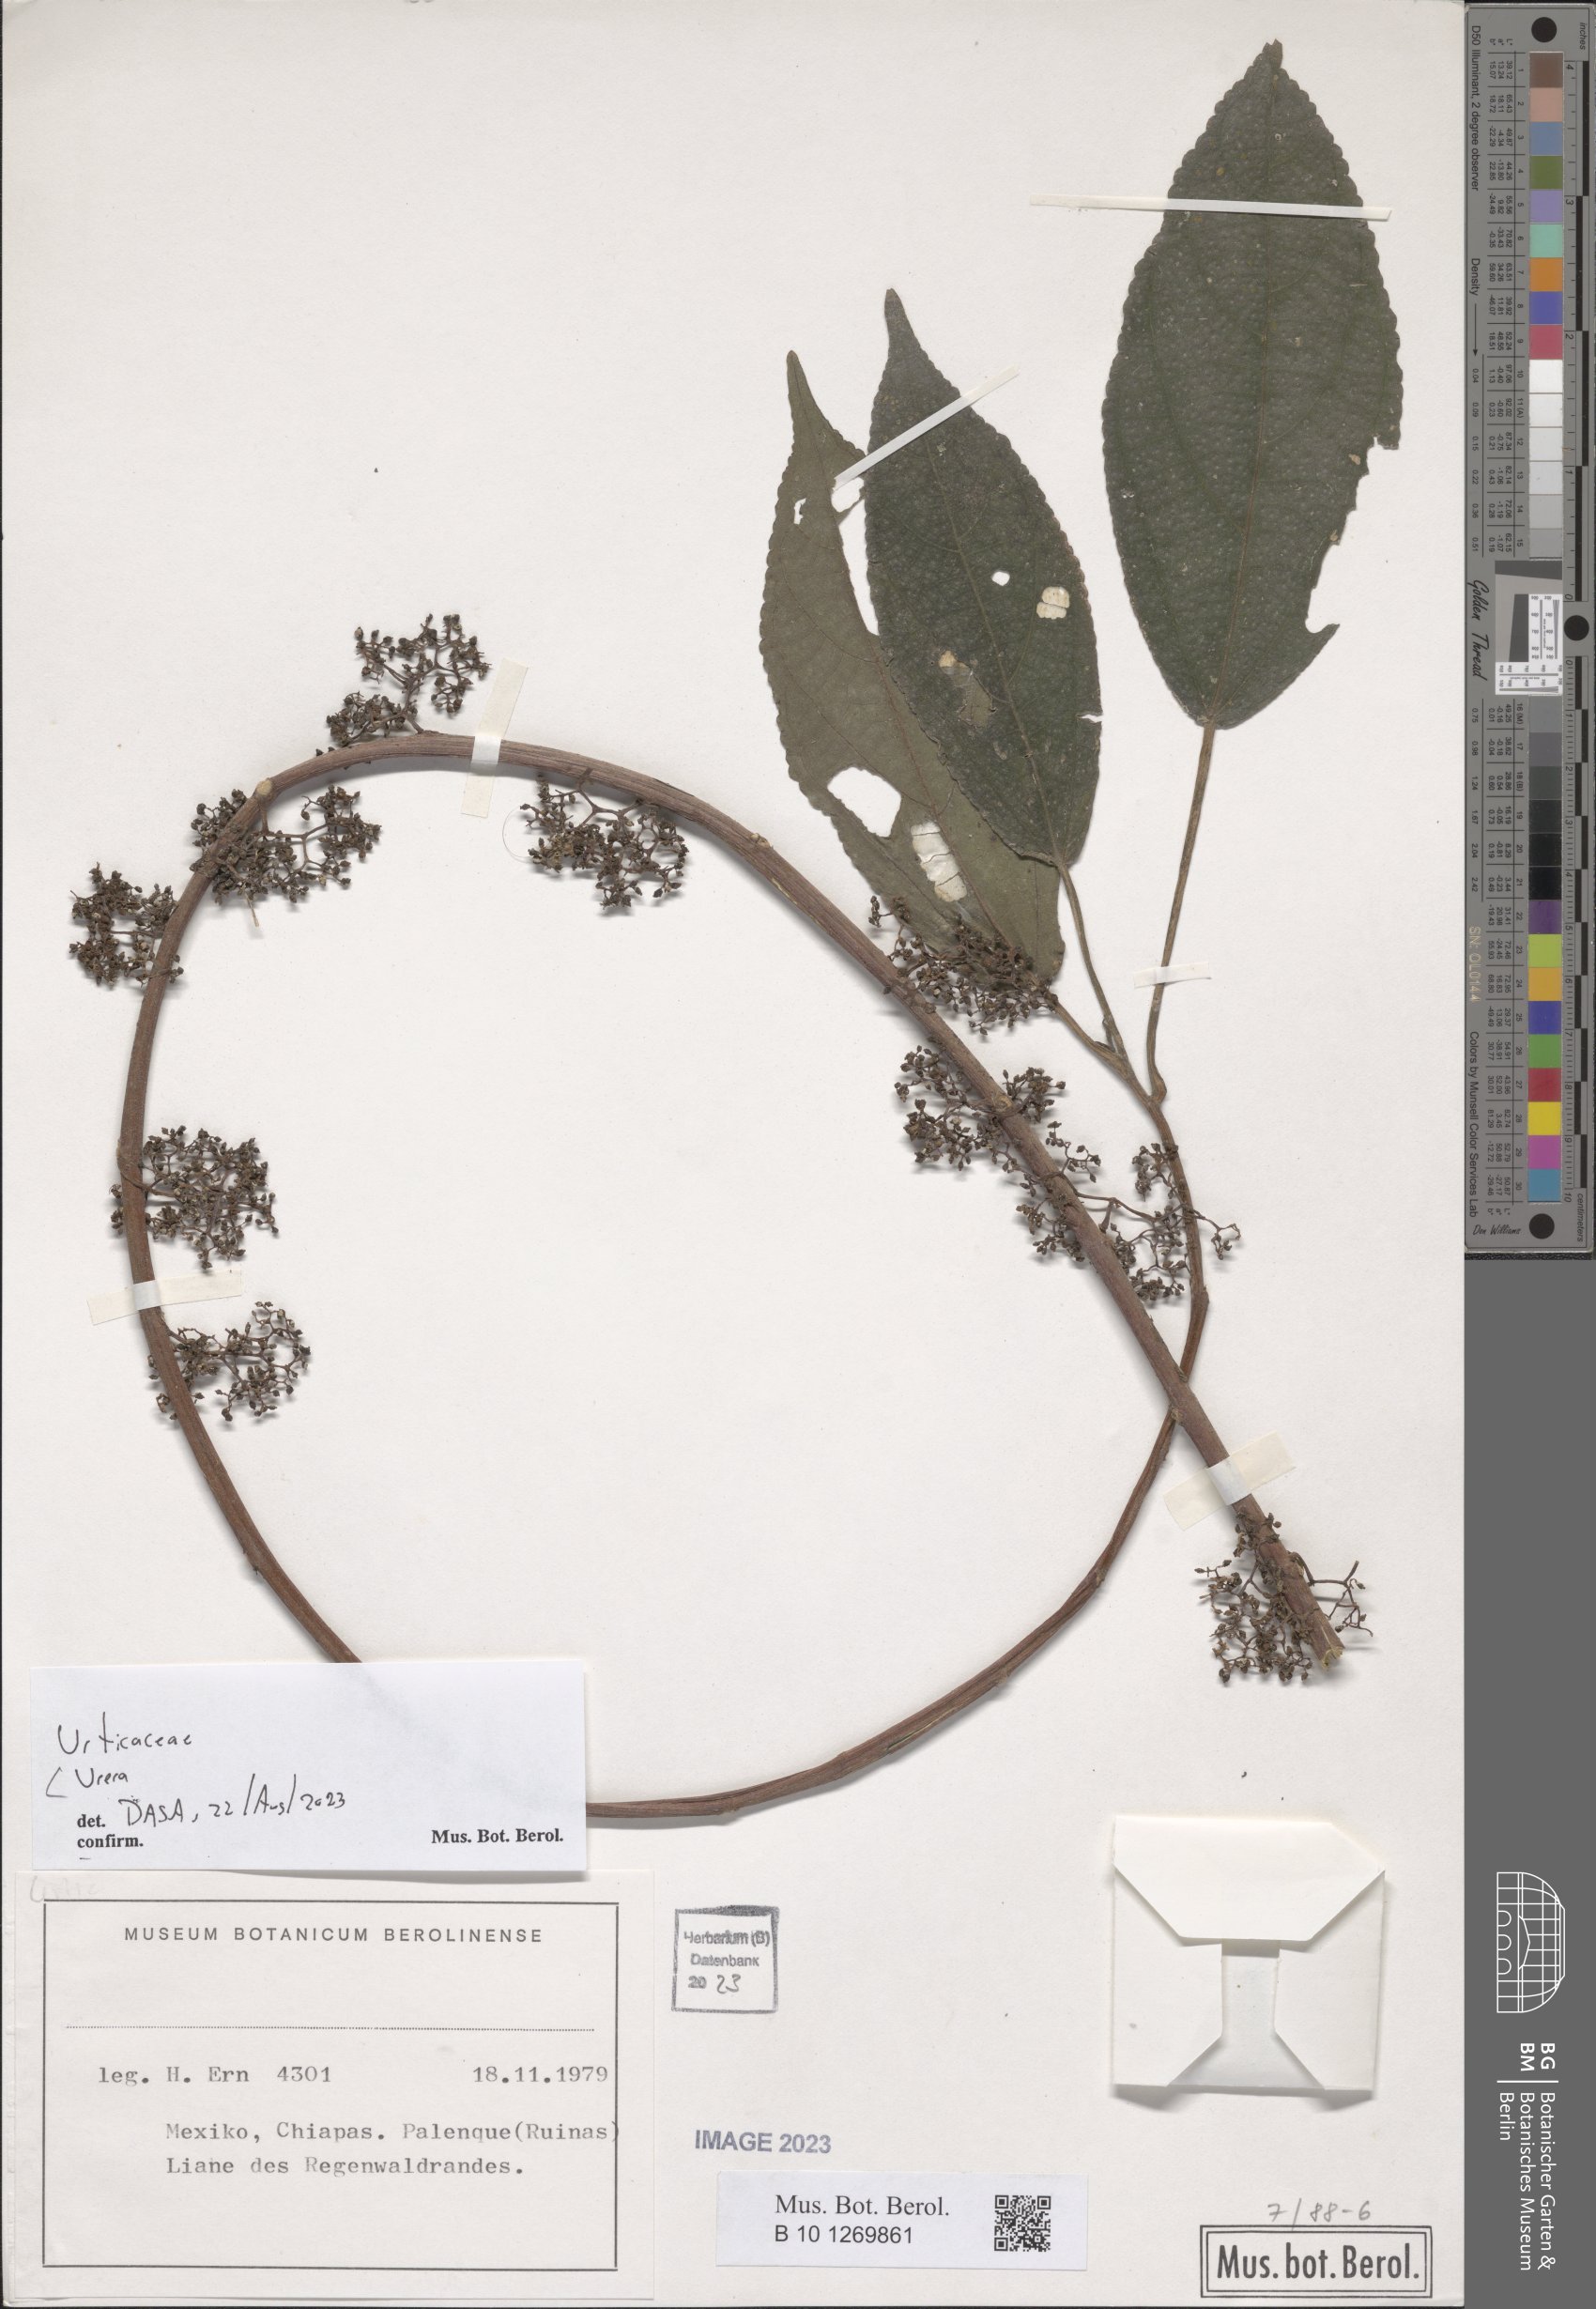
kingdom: Plantae
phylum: Tracheophyta
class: Magnoliopsida
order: Rosales
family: Urticaceae
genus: Urera
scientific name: Urera
